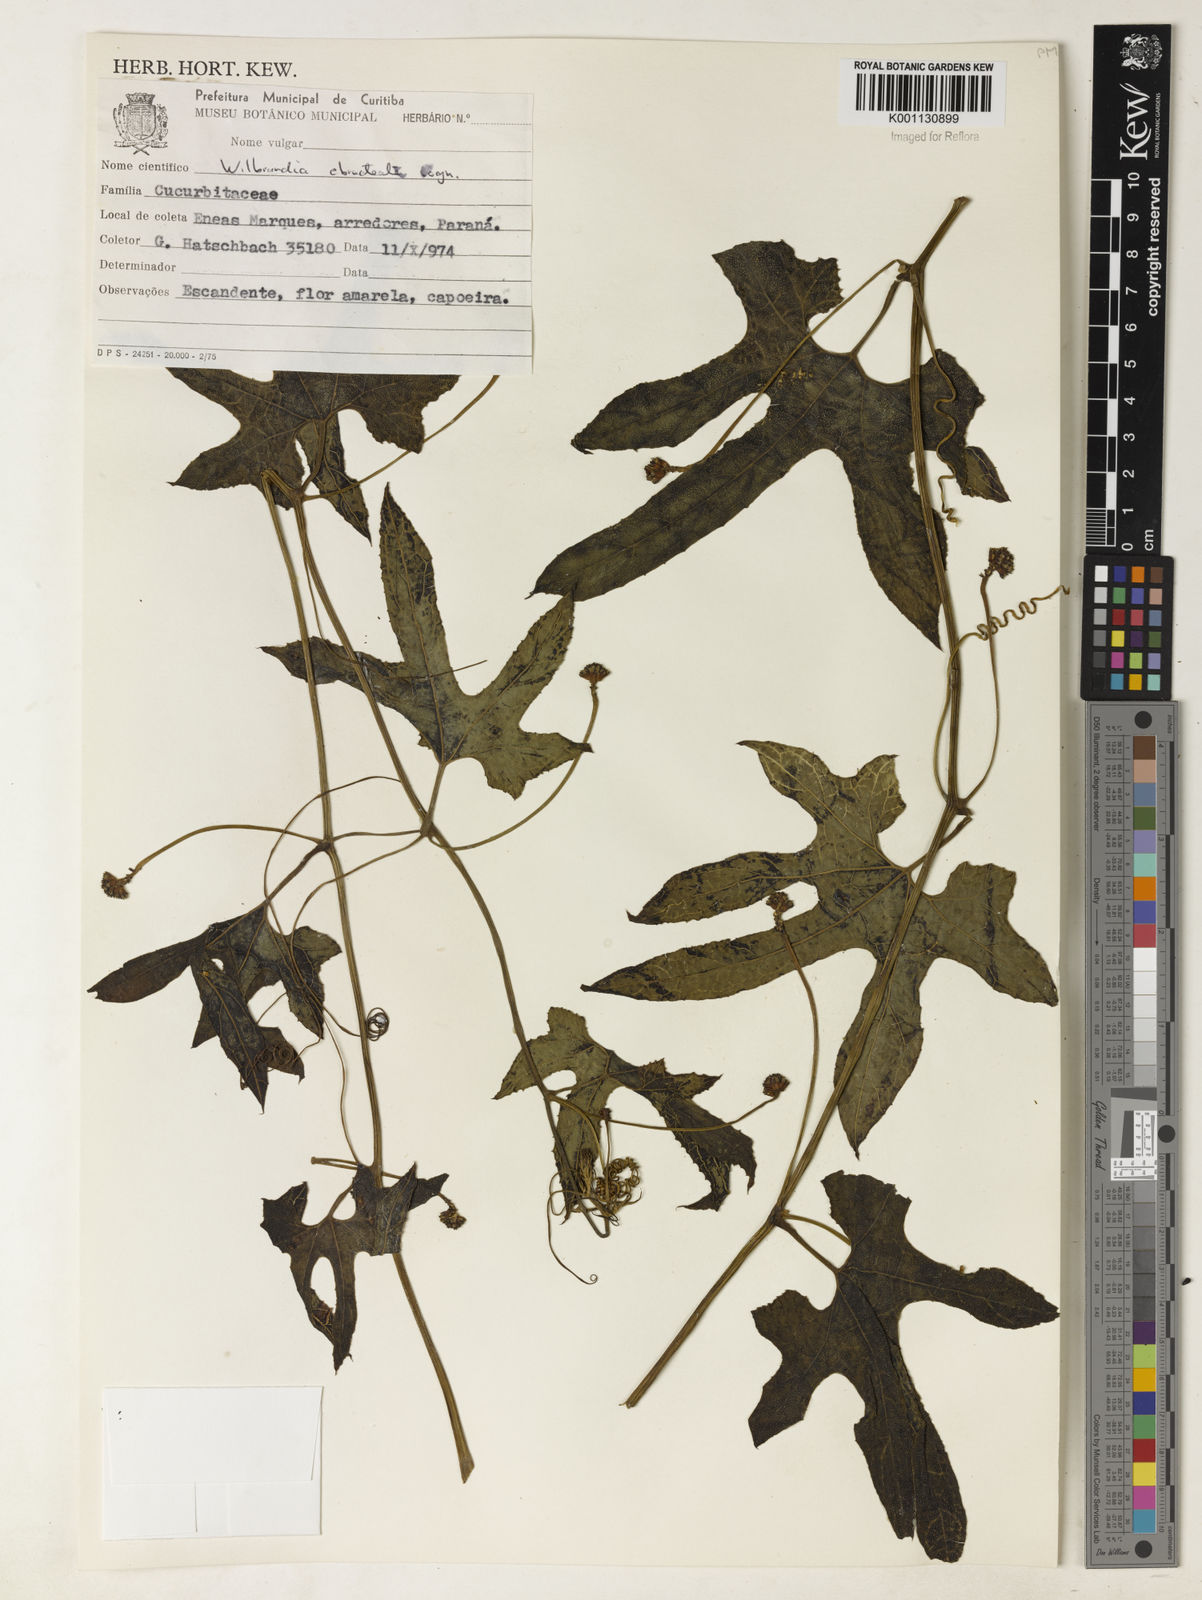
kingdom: Plantae
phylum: Tracheophyta
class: Magnoliopsida
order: Cucurbitales
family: Cucurbitaceae
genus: Wilbrandia
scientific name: Wilbrandia longisepala
